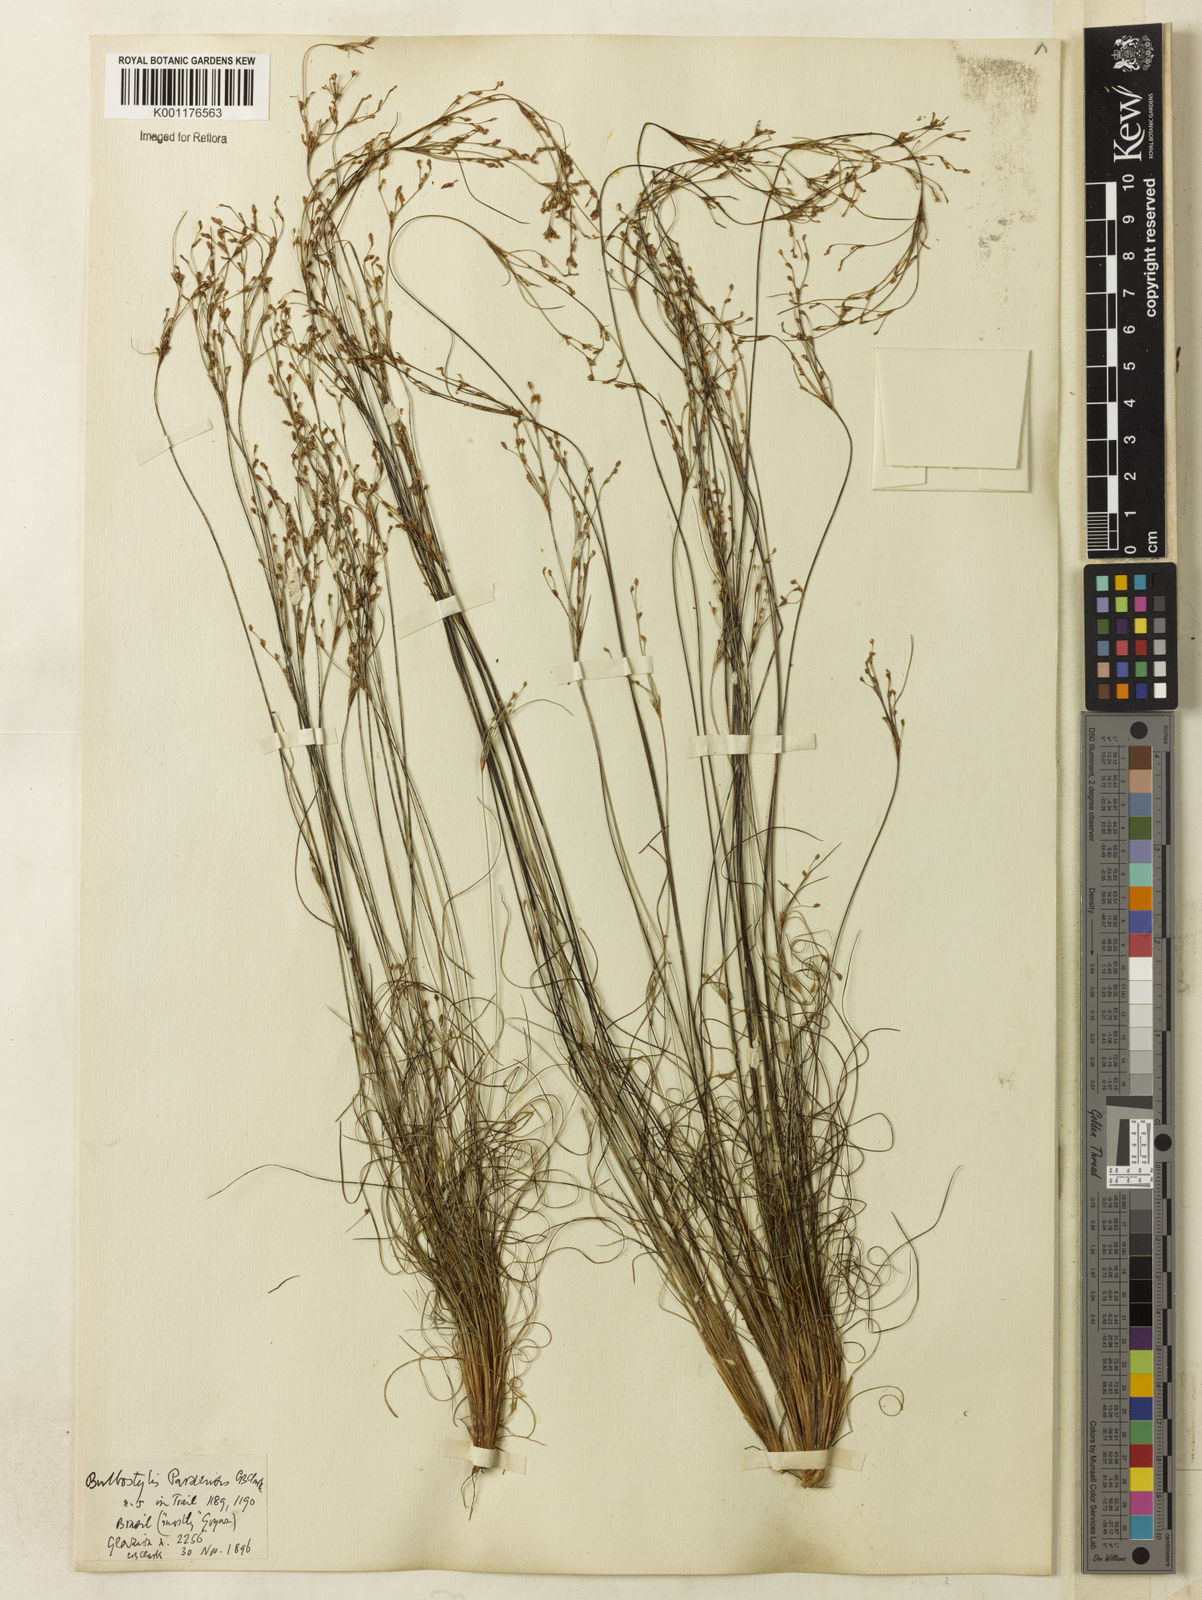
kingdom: Plantae
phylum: Tracheophyta
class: Liliopsida
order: Poales
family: Cyperaceae
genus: Bulbostylis
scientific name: Bulbostylis paraensis
